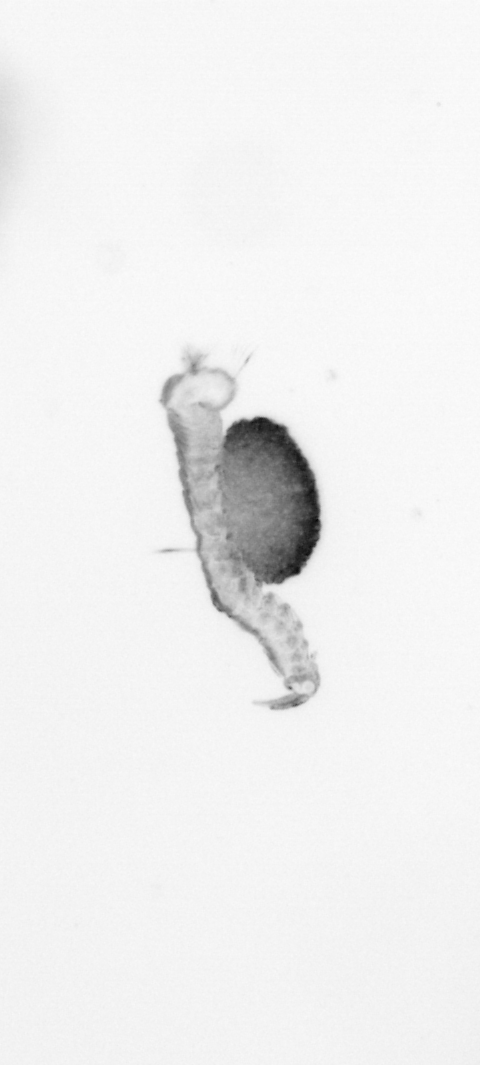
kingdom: Animalia
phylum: Annelida
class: Polychaeta
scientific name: Polychaeta
